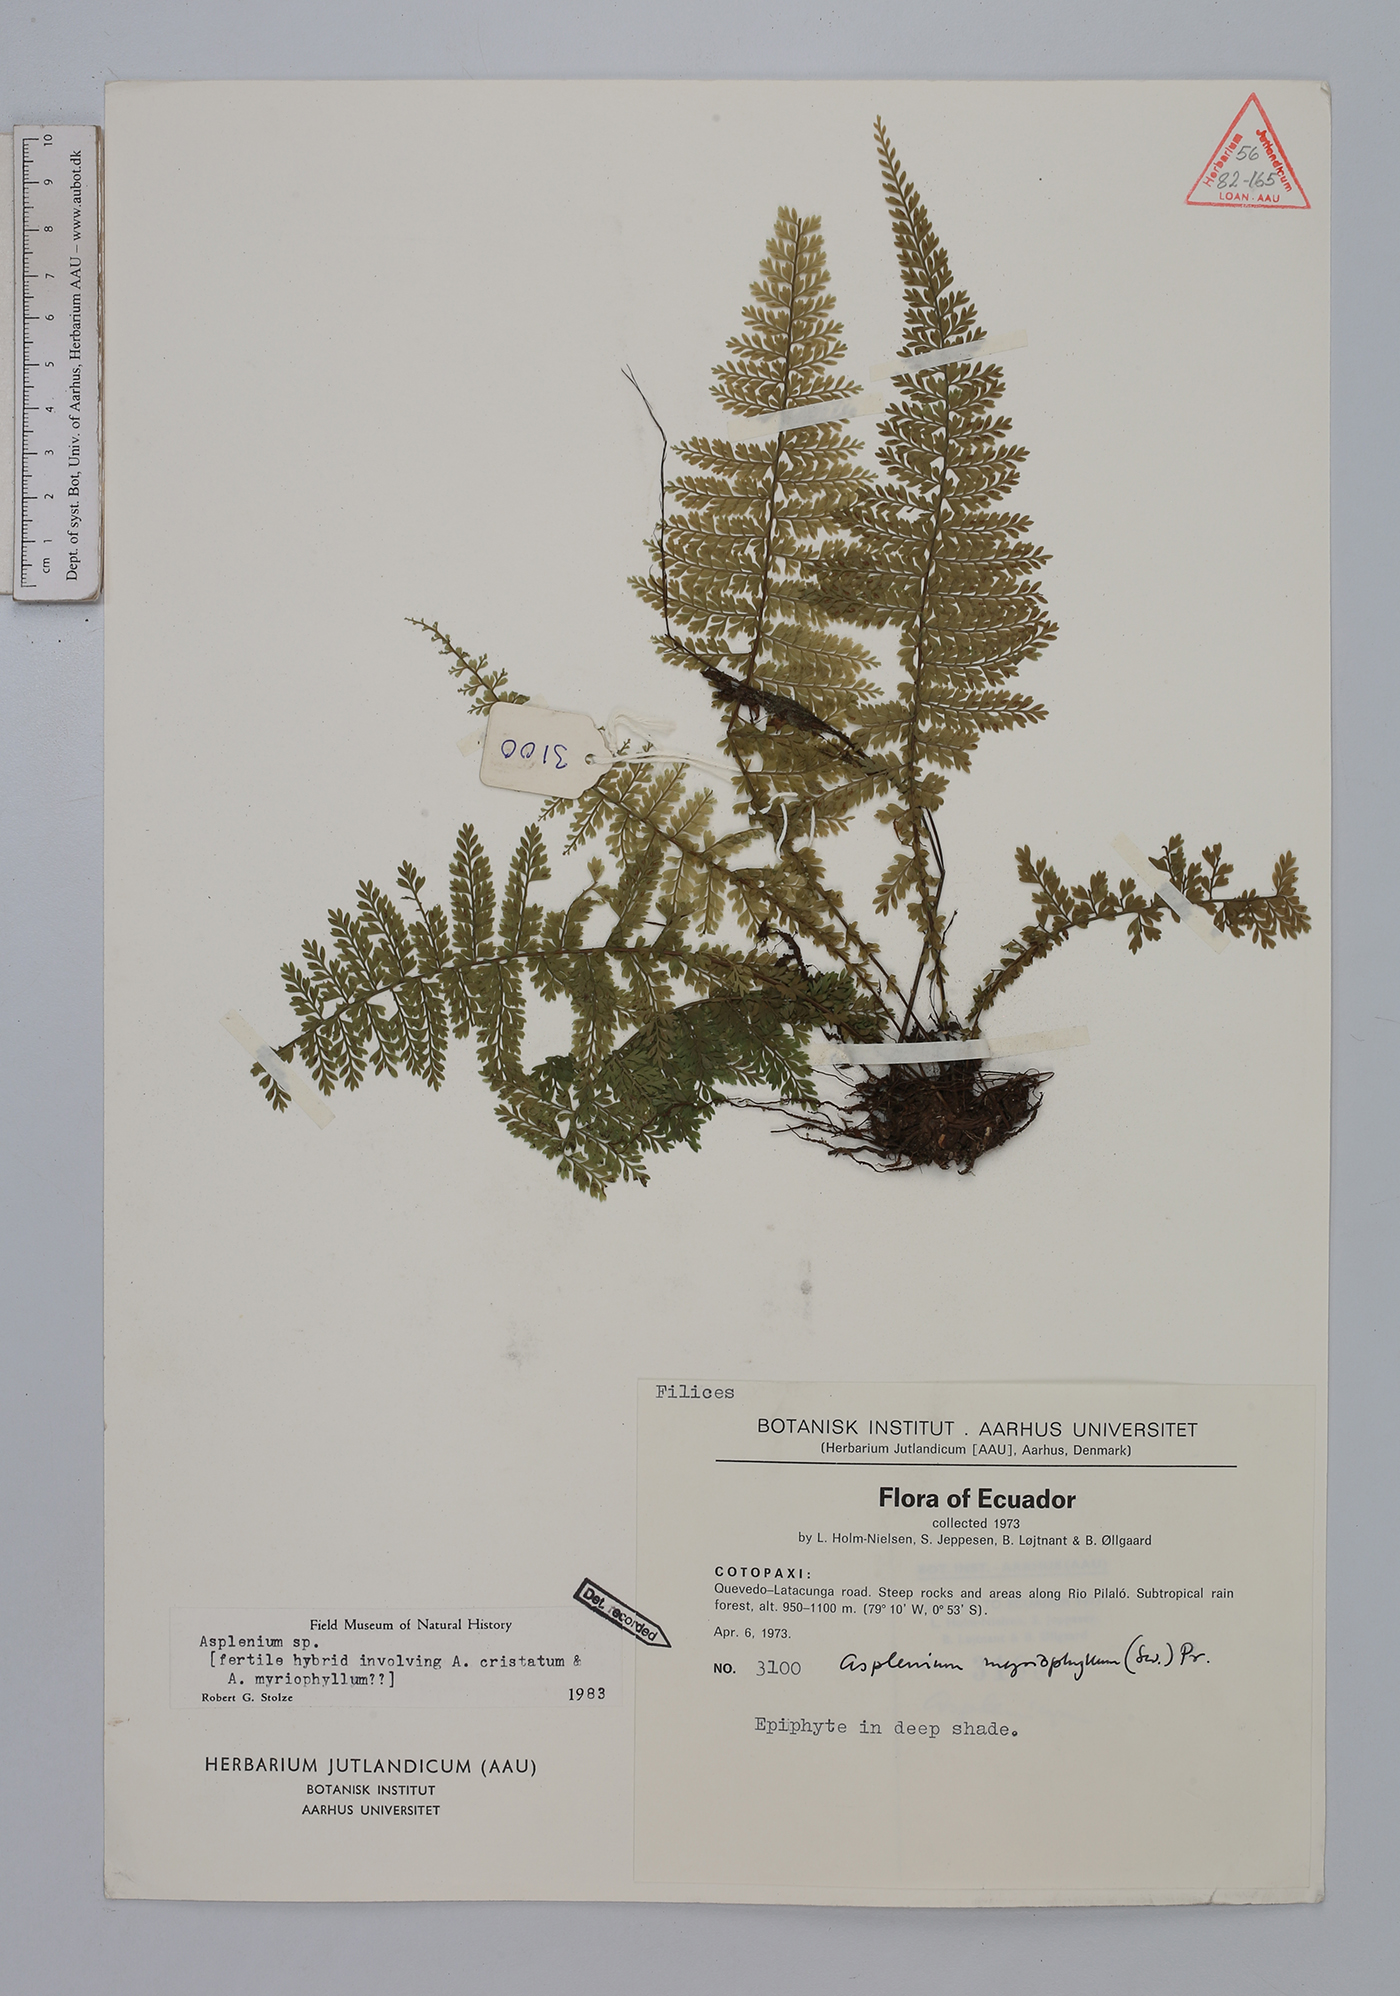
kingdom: Plantae
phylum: Tracheophyta
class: Polypodiopsida
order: Polypodiales
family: Aspleniaceae
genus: Asplenium
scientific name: Asplenium myriophyllum
